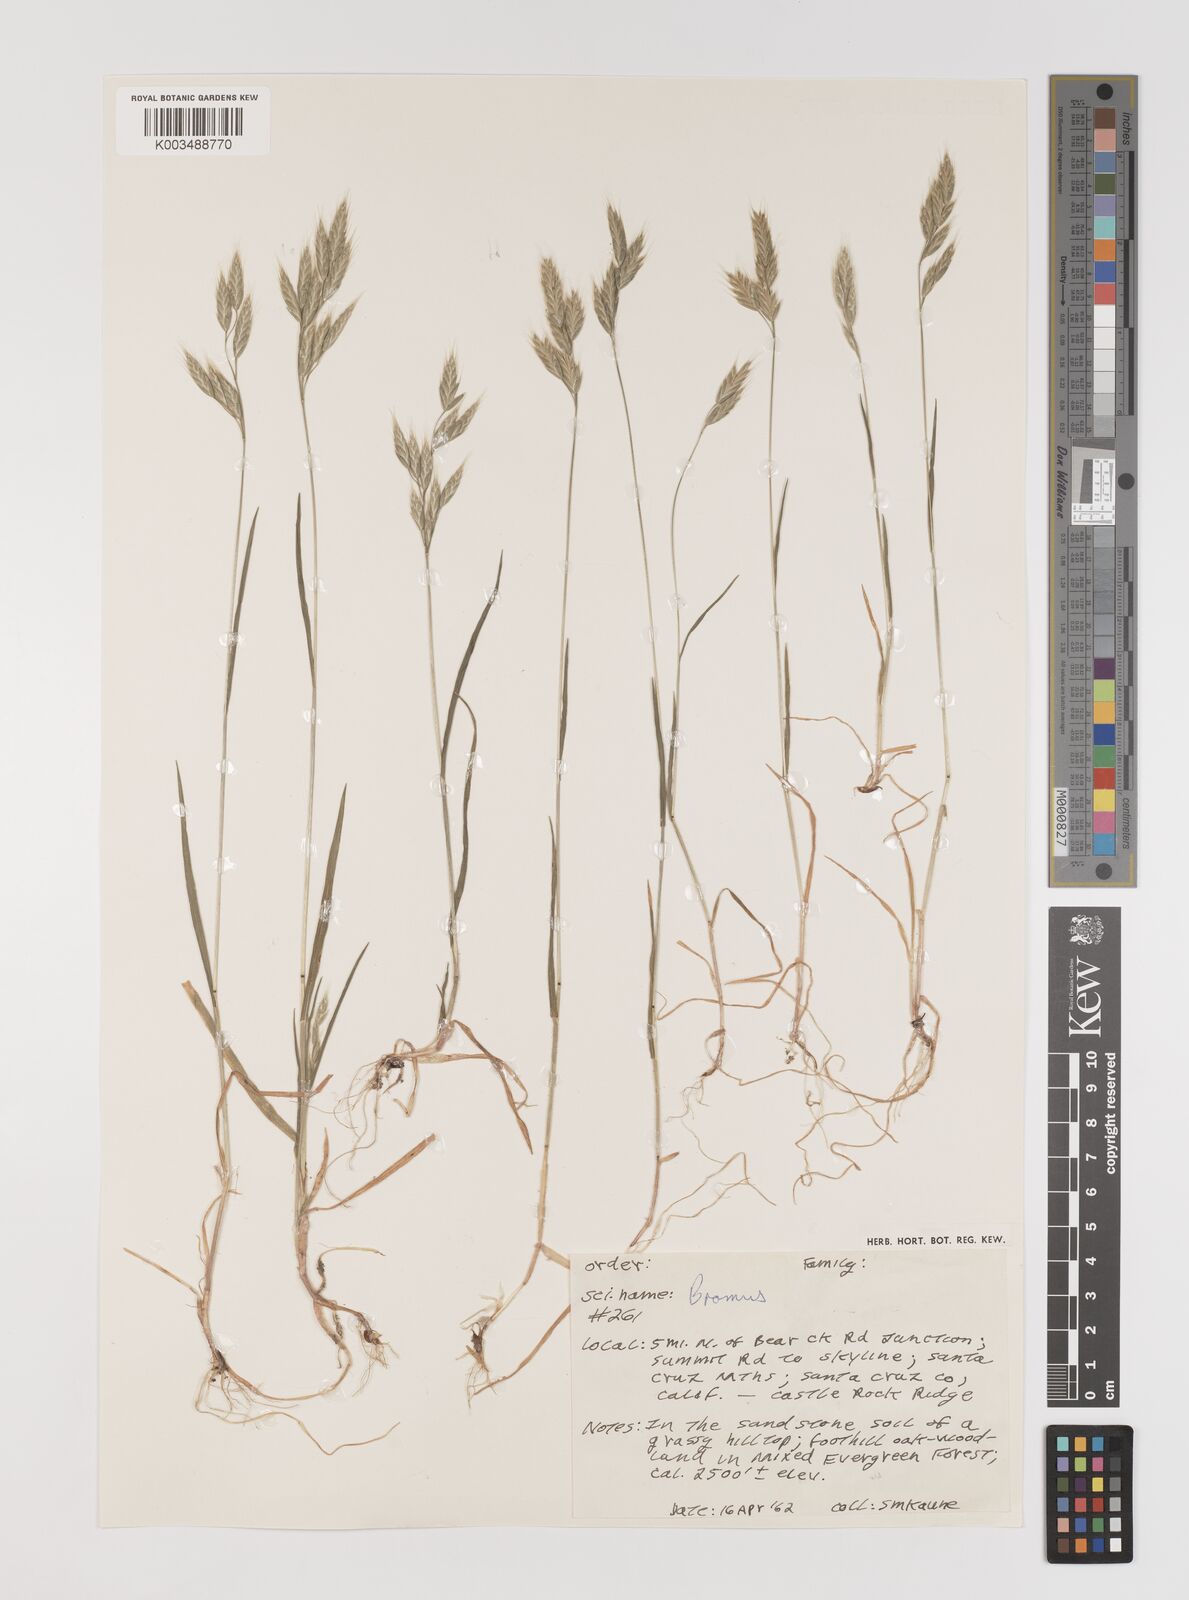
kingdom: Plantae
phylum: Tracheophyta
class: Liliopsida
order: Poales
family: Poaceae
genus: Bromus
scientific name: Bromus
